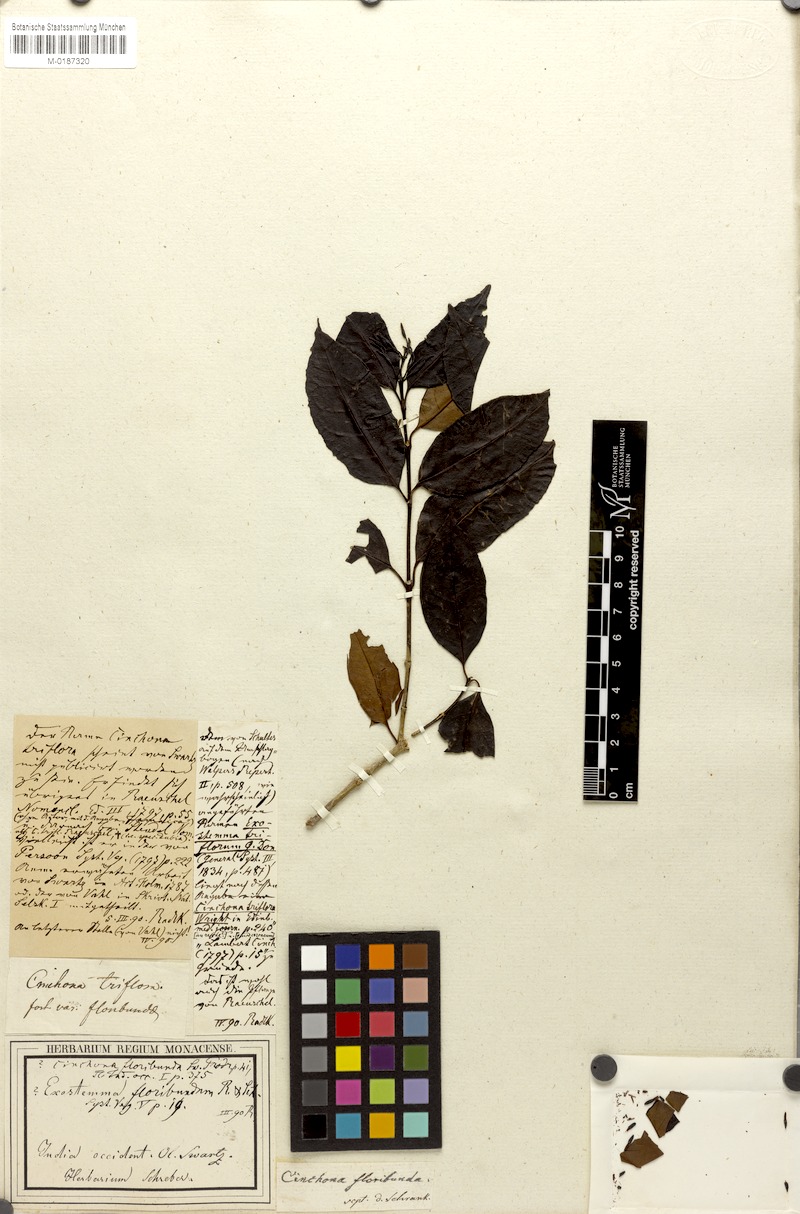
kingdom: Plantae
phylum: Tracheophyta
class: Magnoliopsida
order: Gentianales
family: Rubiaceae
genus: Solenandra
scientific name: Solenandra sanctae-luciae
